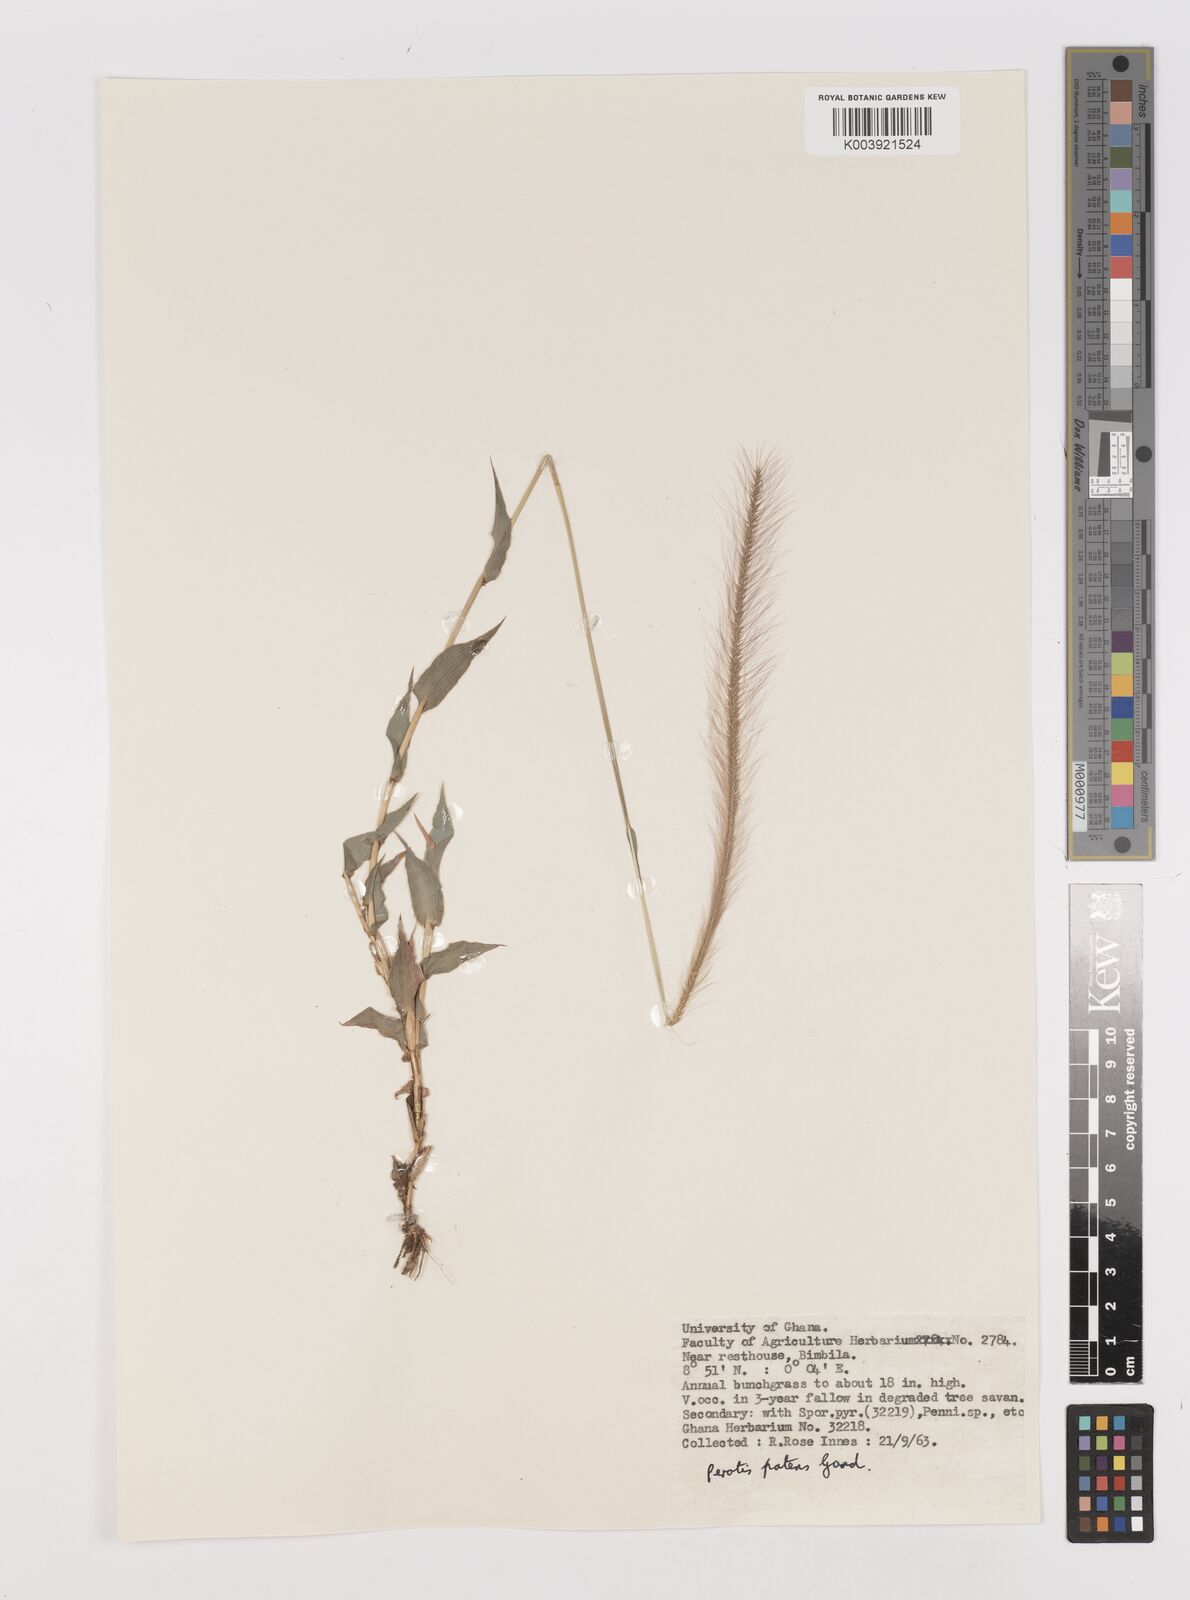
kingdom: Plantae
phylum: Tracheophyta
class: Liliopsida
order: Poales
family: Poaceae
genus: Perotis
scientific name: Perotis patens
